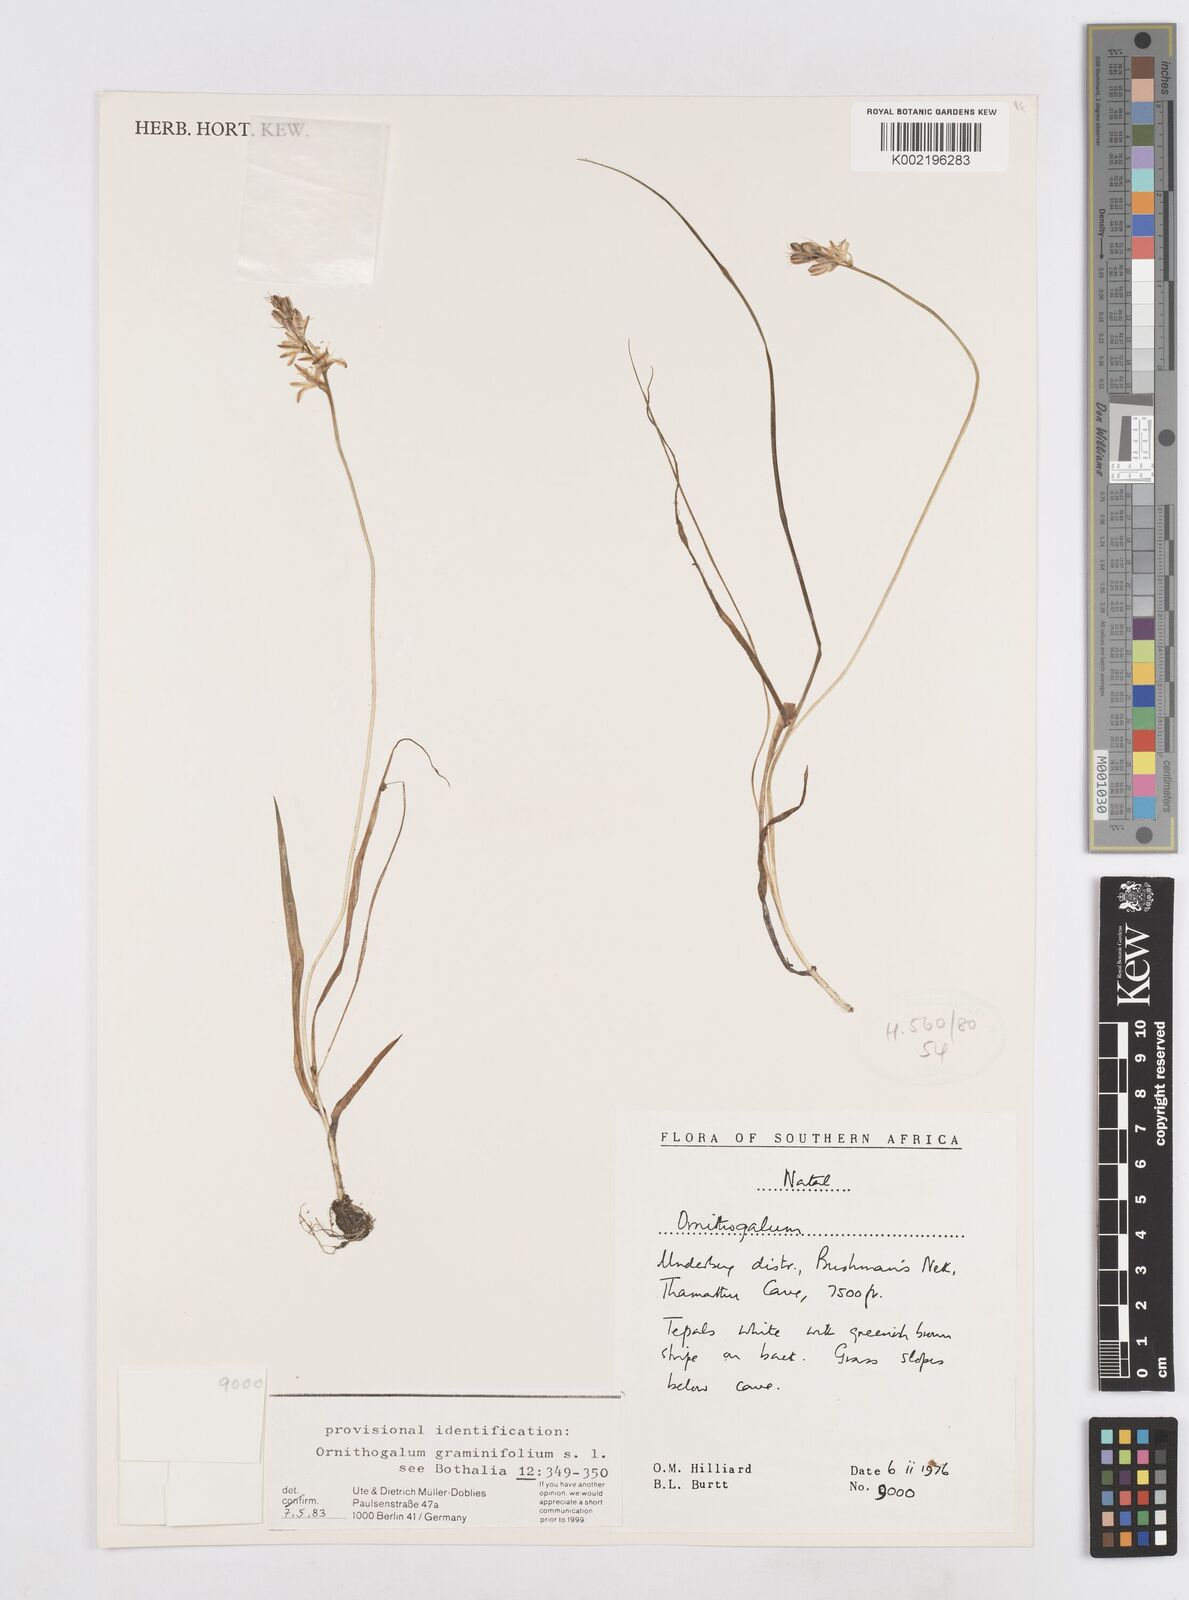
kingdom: Plantae
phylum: Tracheophyta
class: Liliopsida
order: Asparagales
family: Asparagaceae
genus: Ornithogalum
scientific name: Ornithogalum graminifolium
